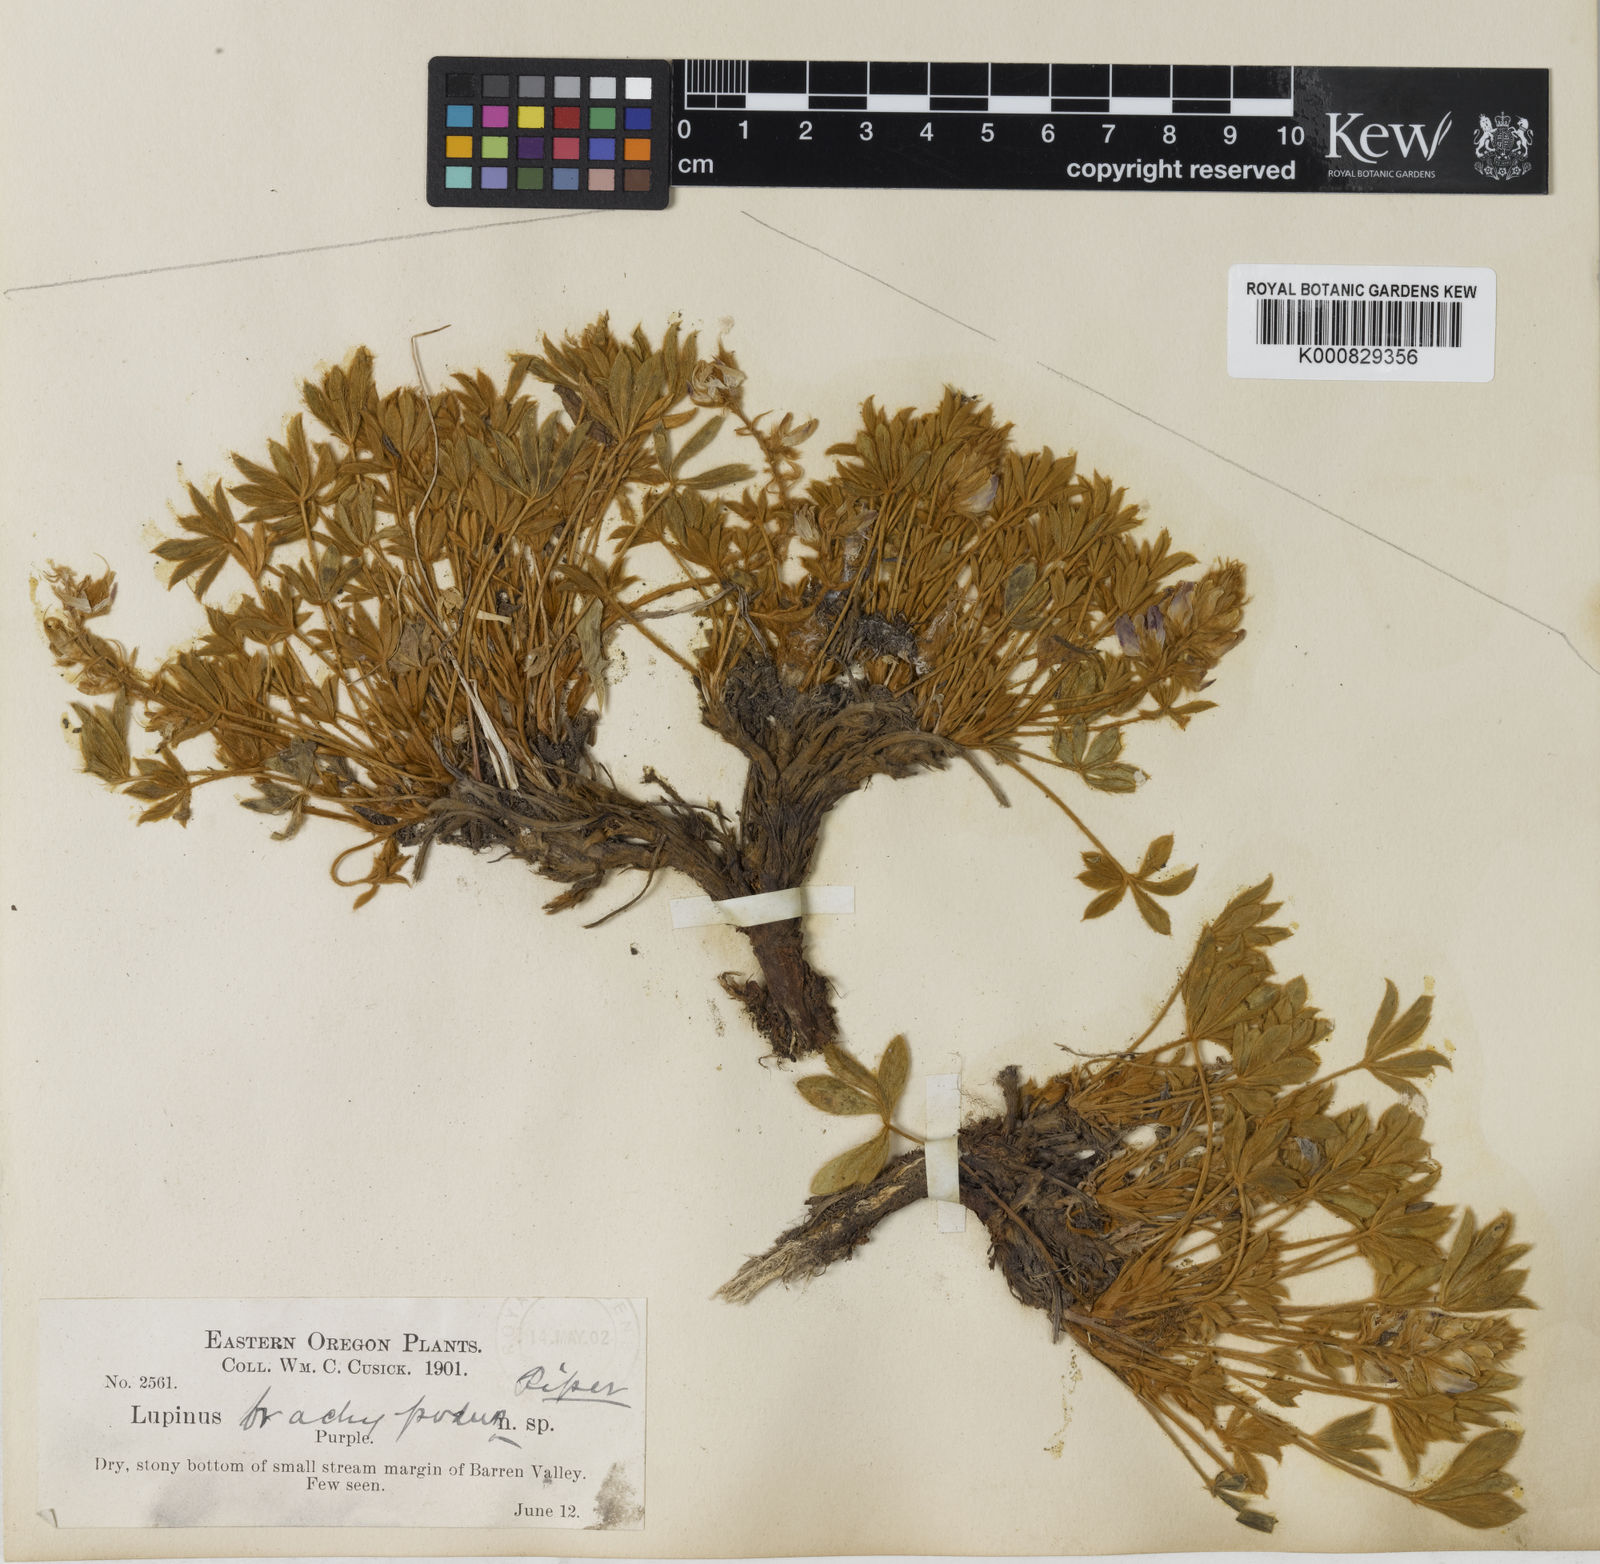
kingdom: Plantae
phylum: Tracheophyta
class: Magnoliopsida
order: Fabales
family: Fabaceae
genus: Lupinus
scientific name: Lupinus cusickii
